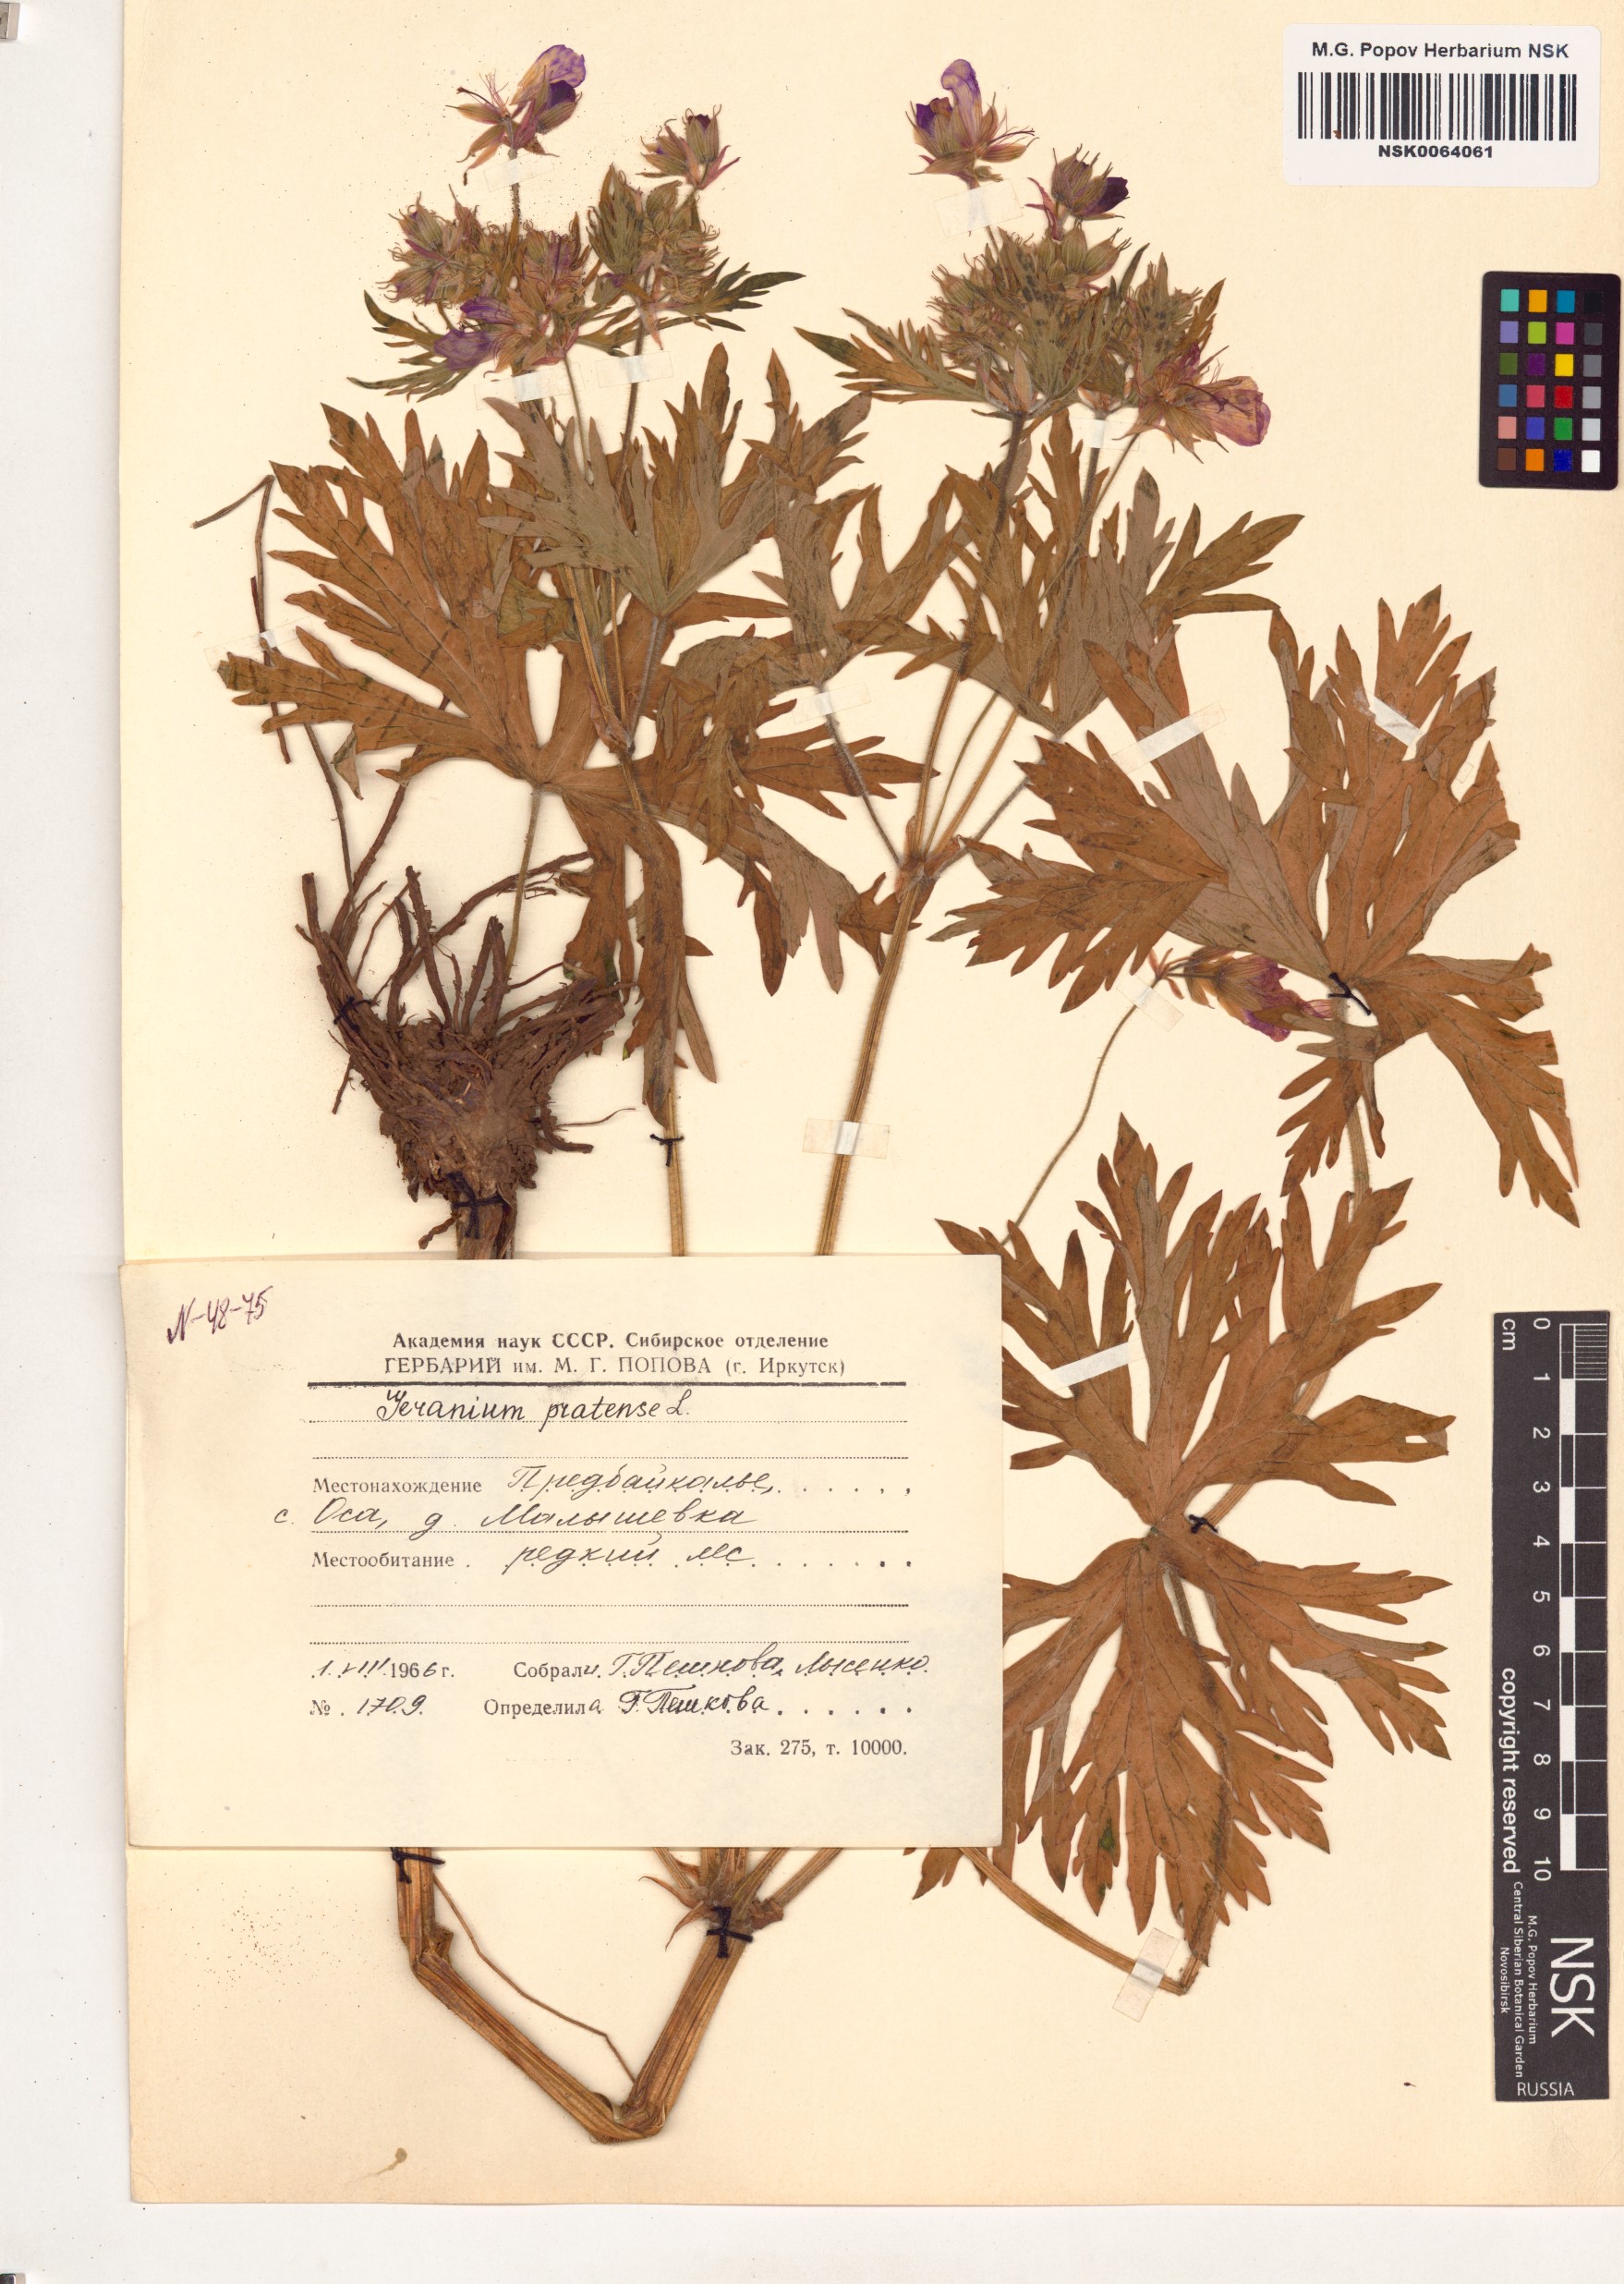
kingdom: Plantae
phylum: Tracheophyta
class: Magnoliopsida
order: Geraniales
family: Geraniaceae
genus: Geranium
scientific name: Geranium pratense
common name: Meadow crane's-bill
